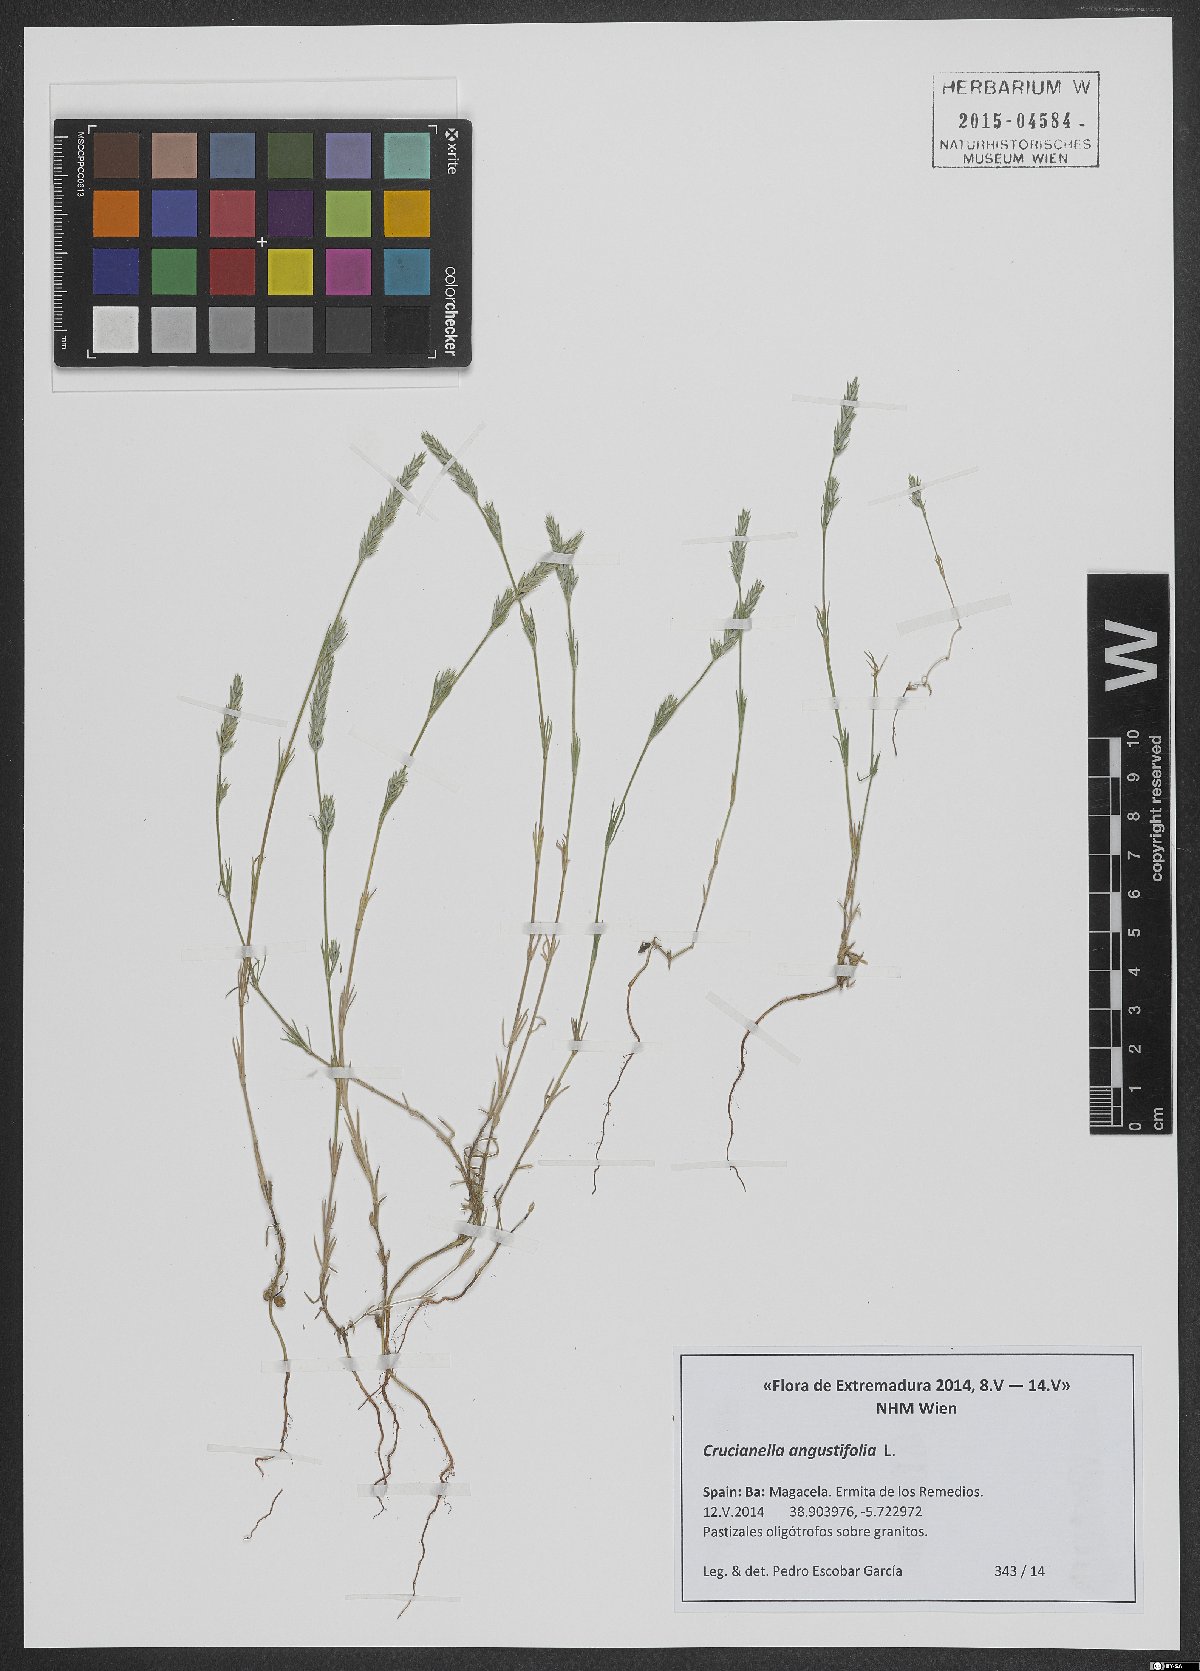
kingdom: Plantae
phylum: Tracheophyta
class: Magnoliopsida
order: Gentianales
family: Rubiaceae
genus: Crucianella
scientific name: Crucianella angustifolia
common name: Narrowleaf crucianella
